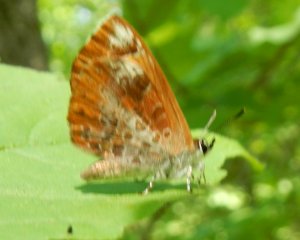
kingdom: Animalia
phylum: Arthropoda
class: Insecta
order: Lepidoptera
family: Lycaenidae
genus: Feniseca
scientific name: Feniseca tarquinius
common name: Harvester
